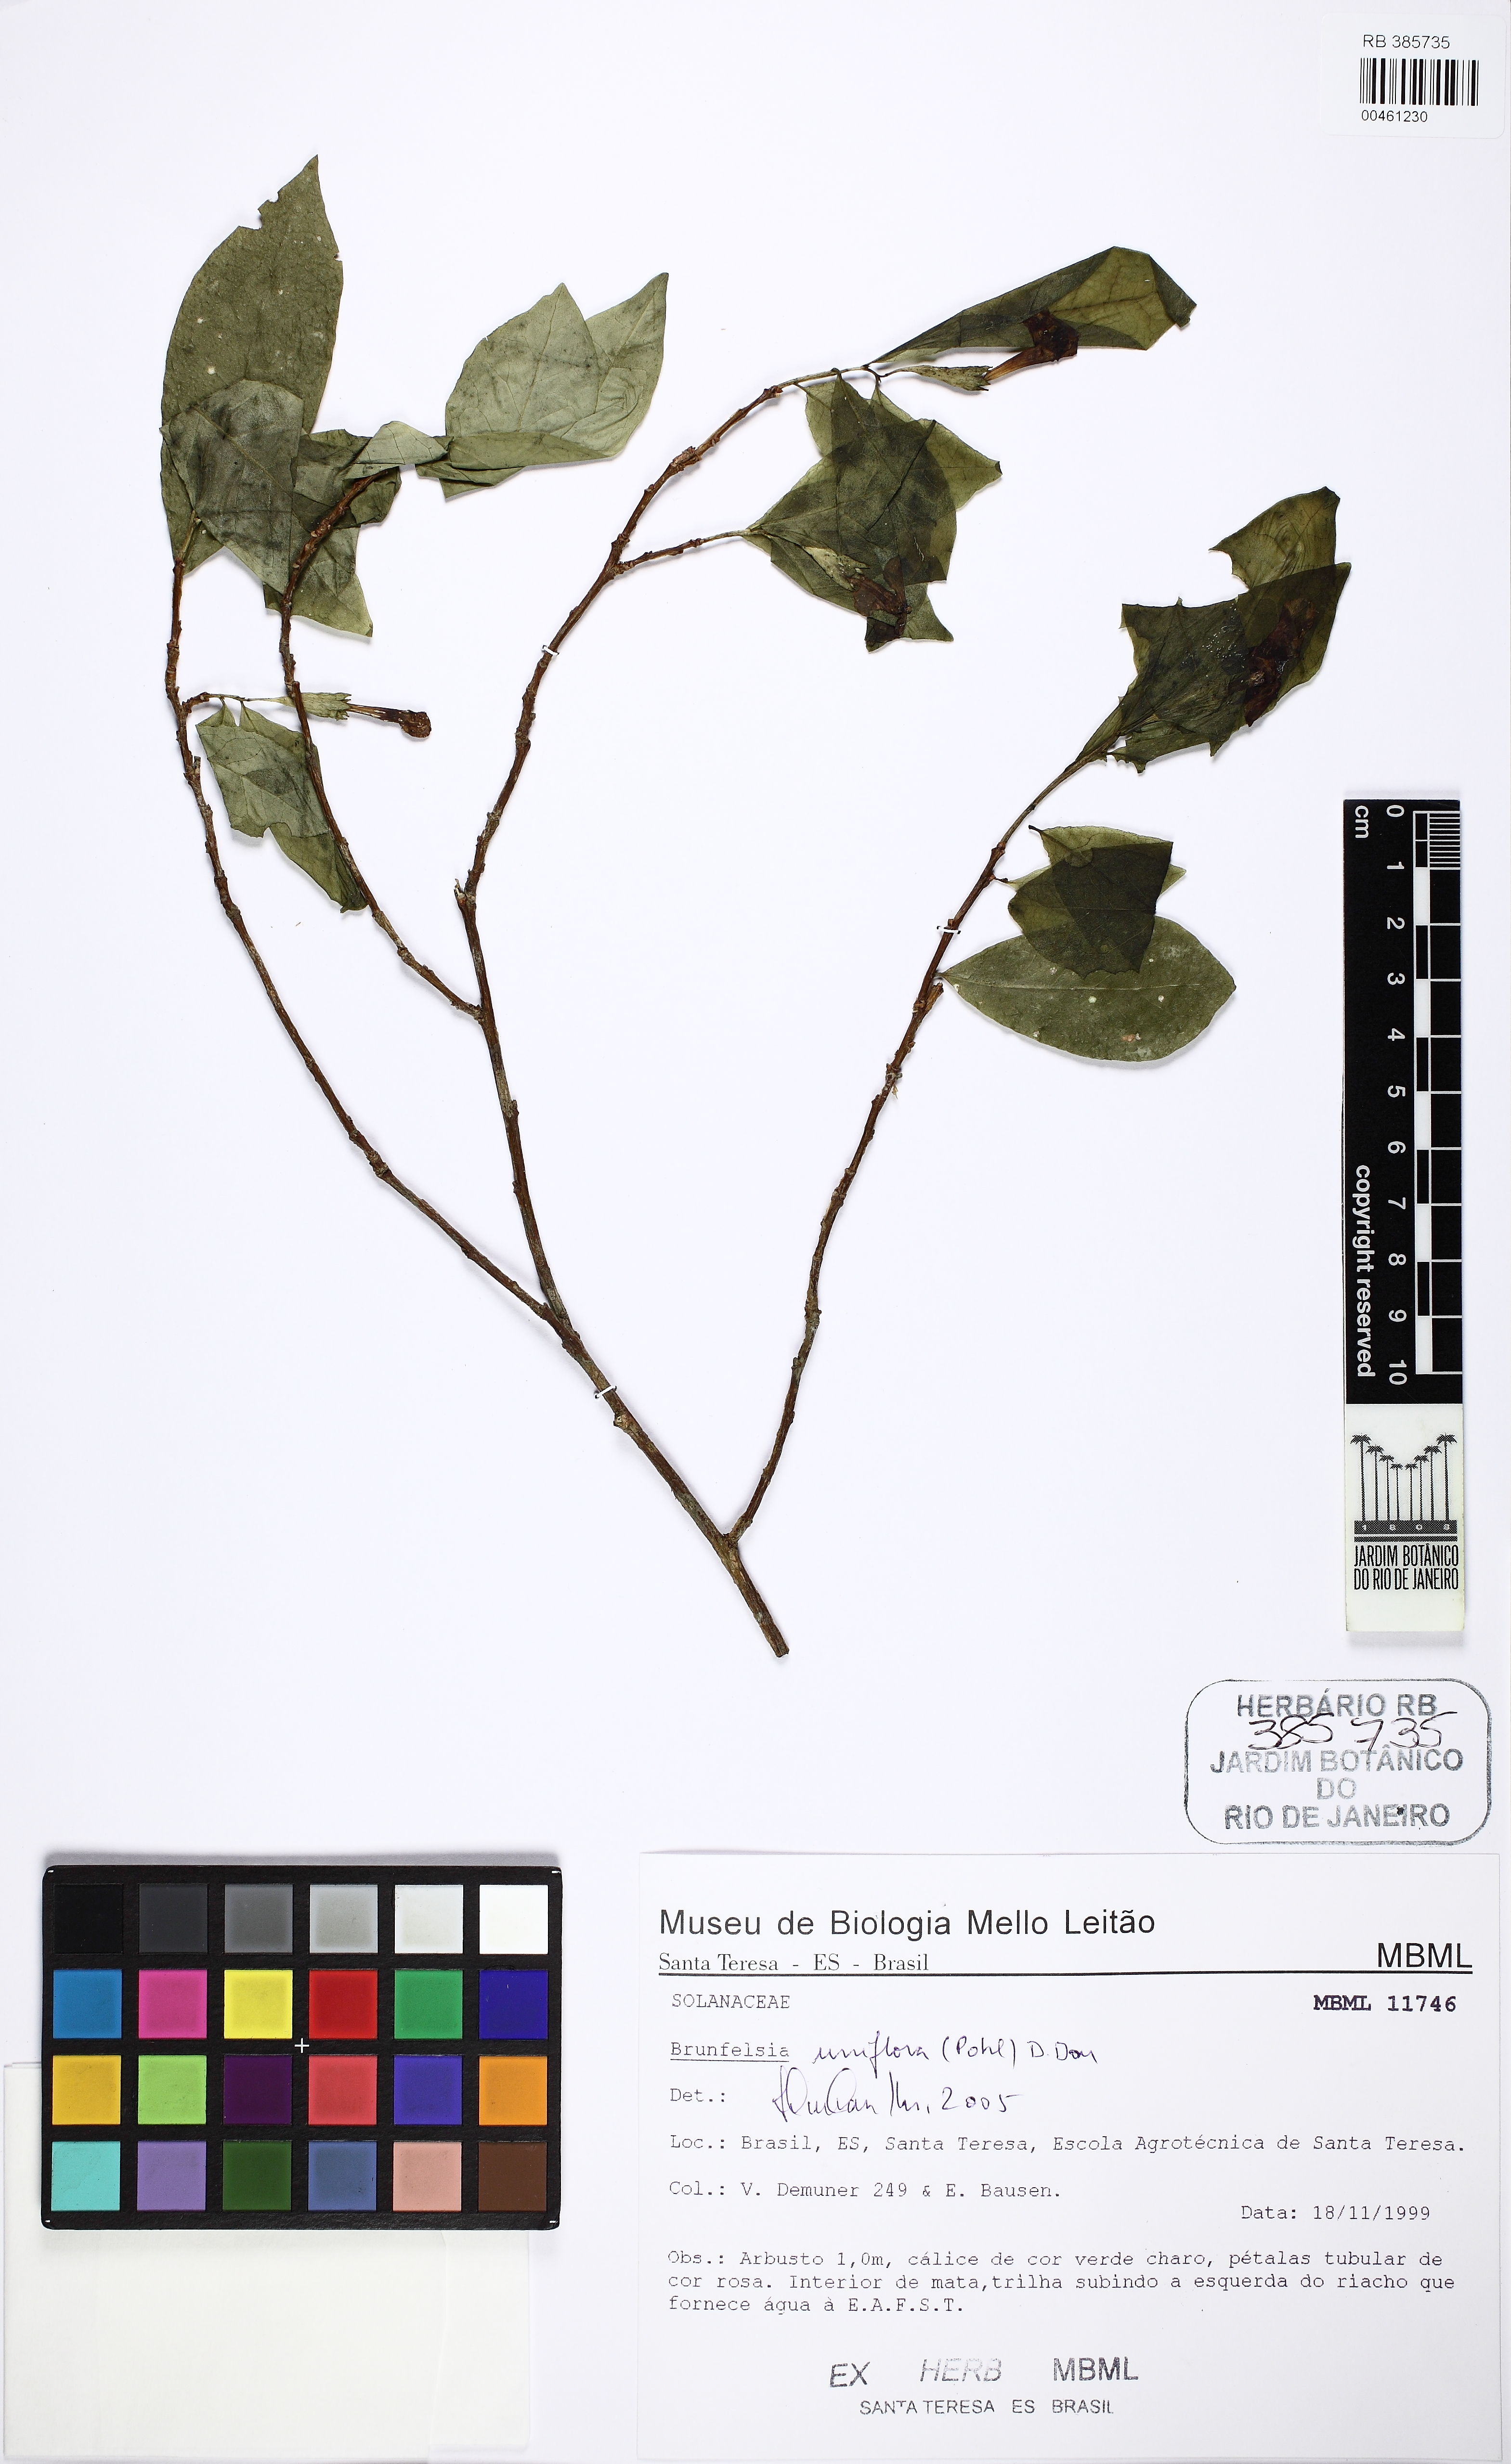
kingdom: Plantae
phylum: Tracheophyta
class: Magnoliopsida
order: Solanales
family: Solanaceae
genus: Brunfelsia
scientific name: Brunfelsia uniflora
